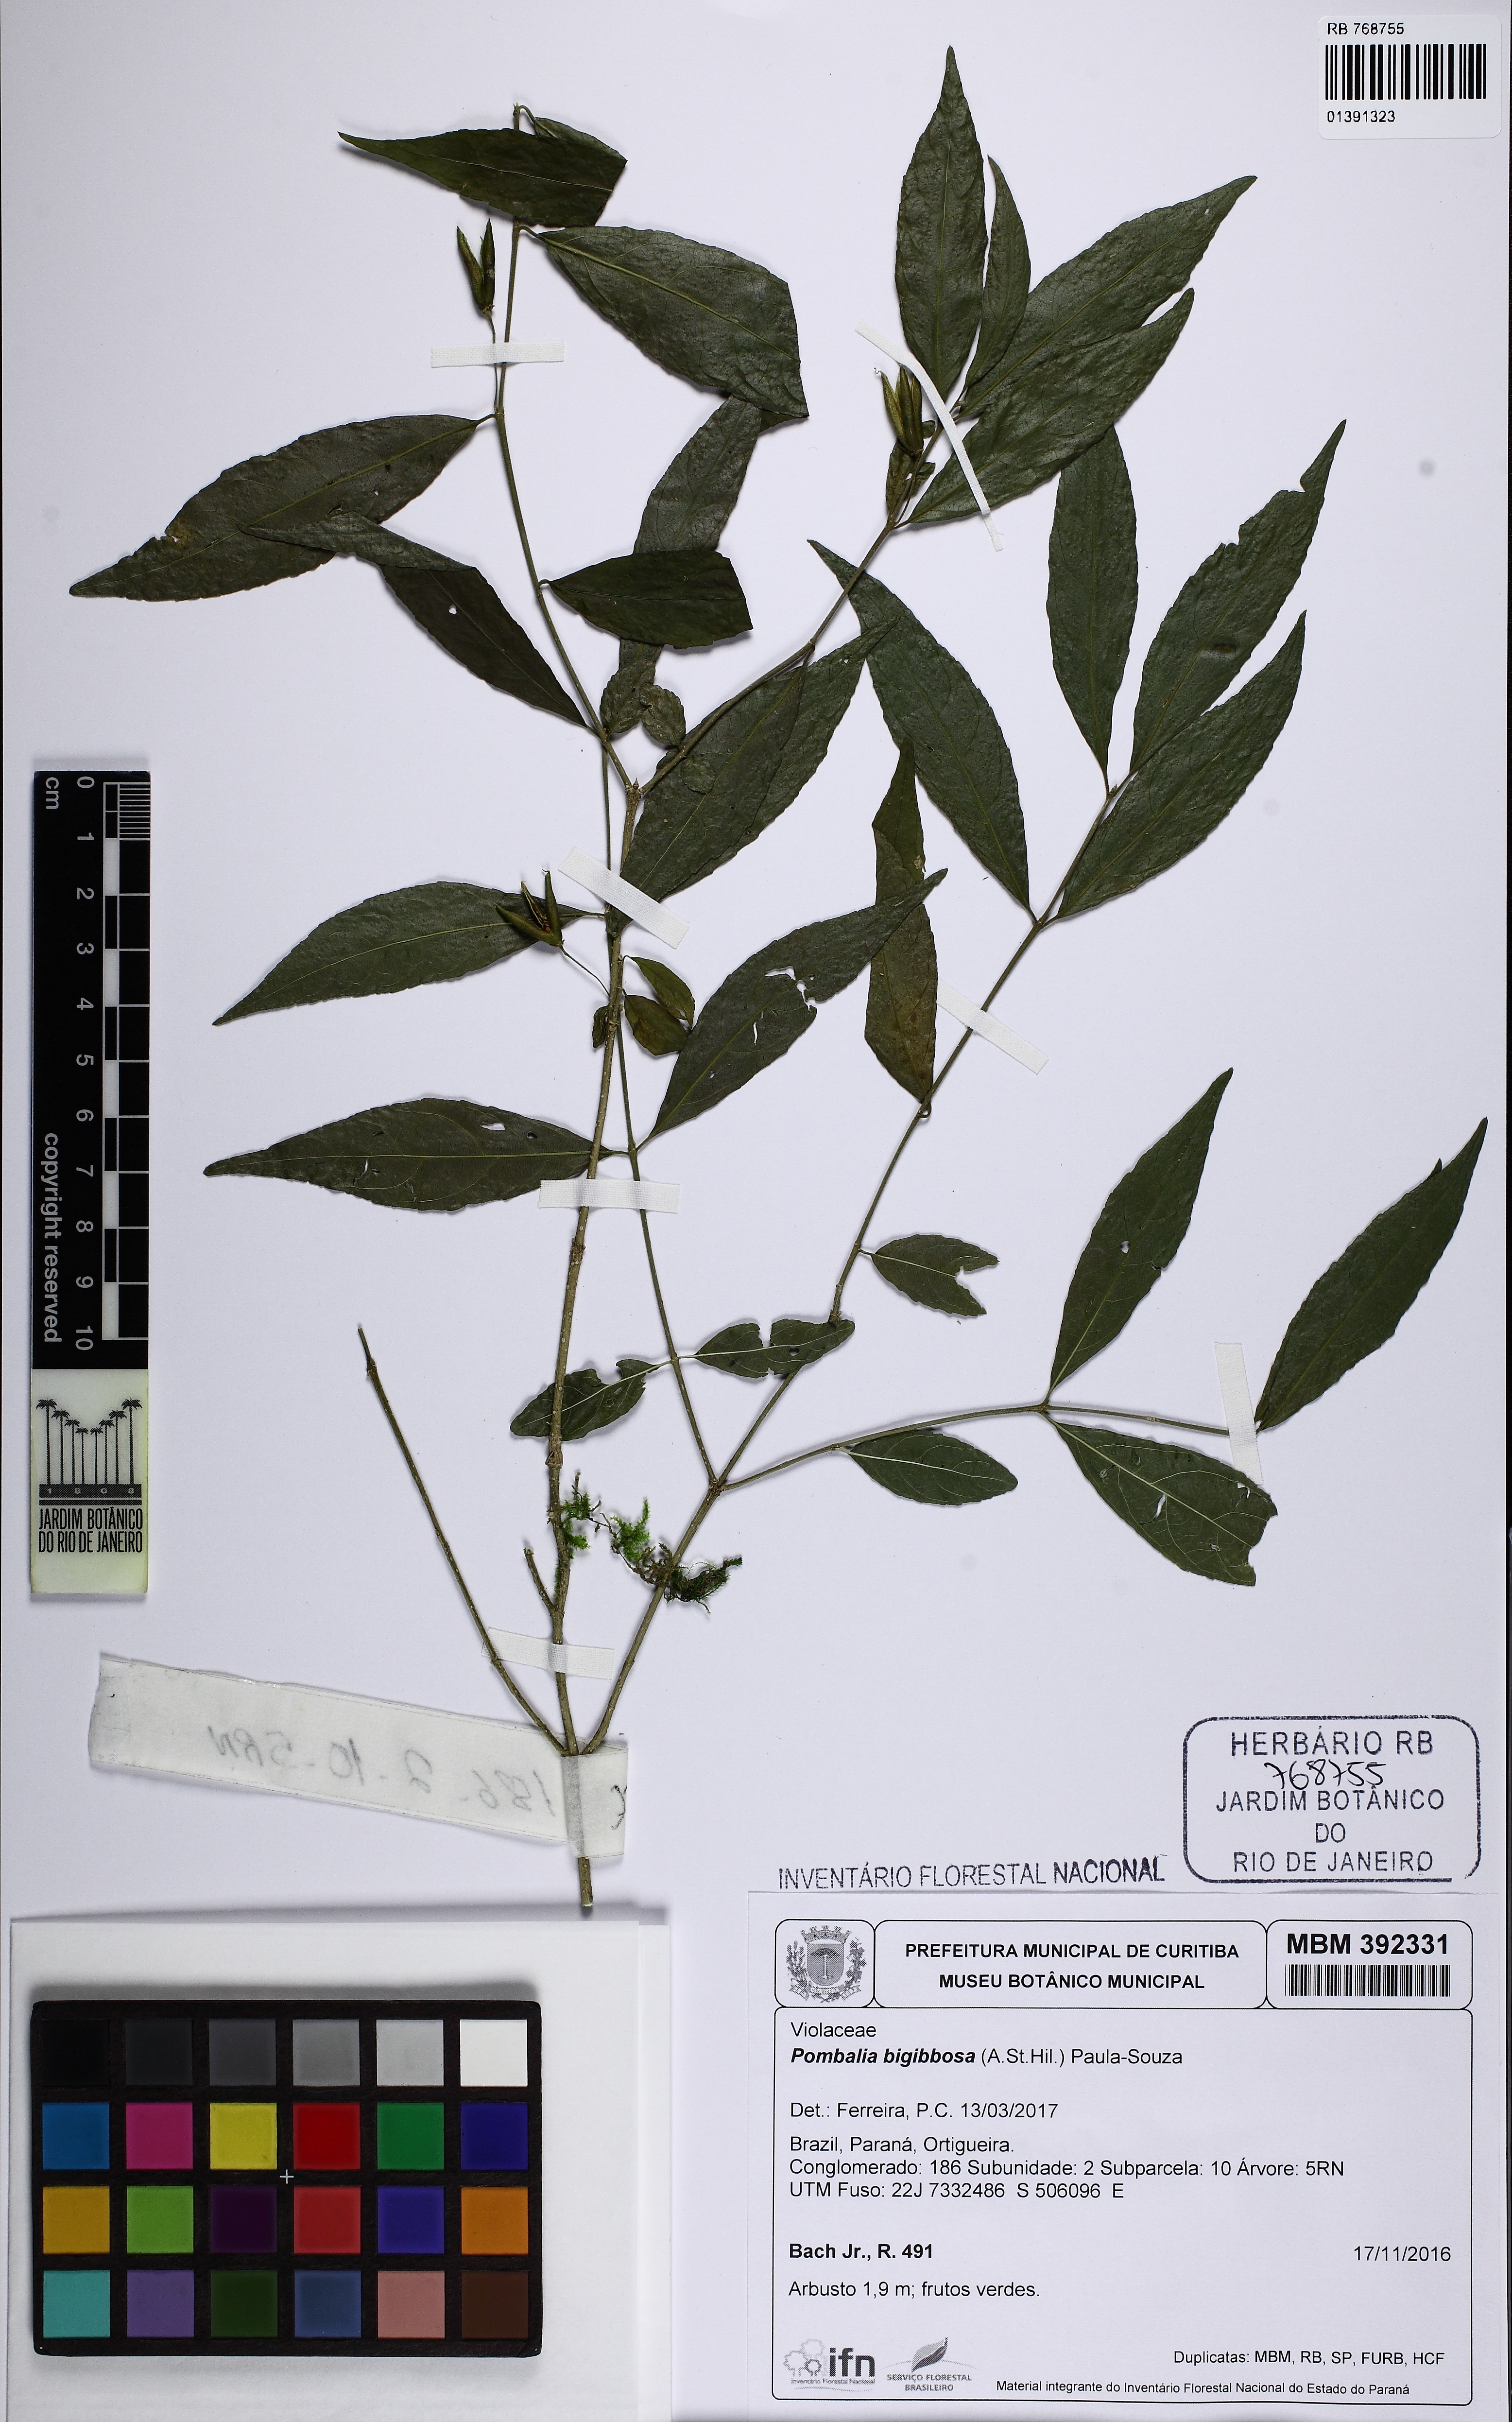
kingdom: Plantae
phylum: Tracheophyta
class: Magnoliopsida
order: Malpighiales
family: Violaceae
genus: Pombalia
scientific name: Pombalia bigibbosa
